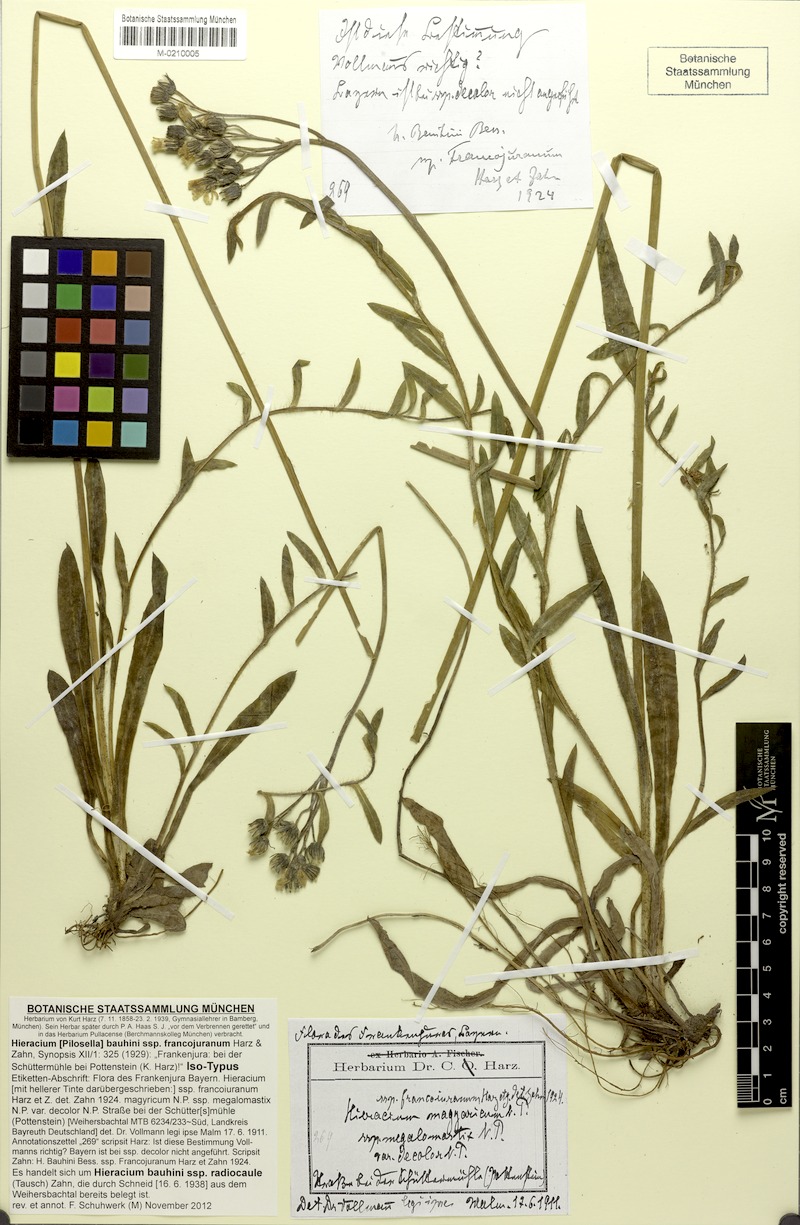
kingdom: Plantae
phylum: Tracheophyta
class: Magnoliopsida
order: Asterales
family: Asteraceae
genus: Pilosella
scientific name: Pilosella bauhini
